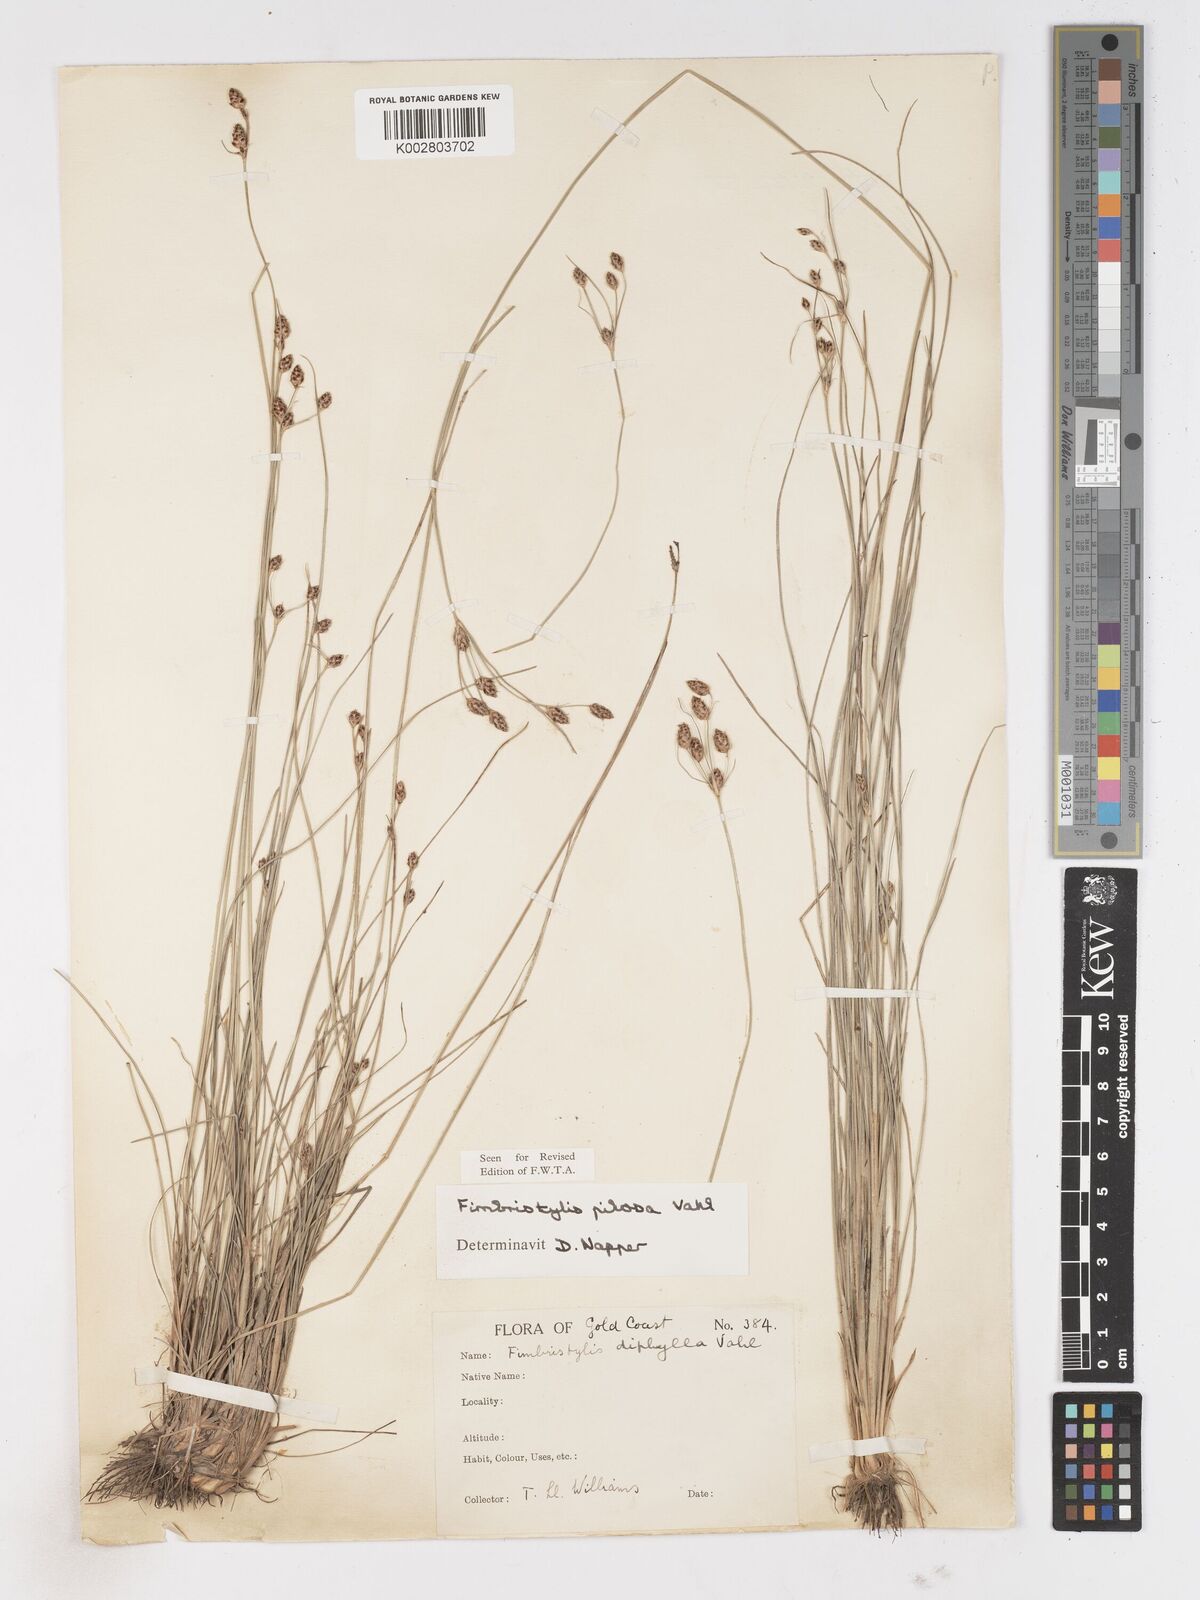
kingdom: Plantae
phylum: Tracheophyta
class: Liliopsida
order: Poales
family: Cyperaceae
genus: Fimbristylis
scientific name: Fimbristylis pilosa
